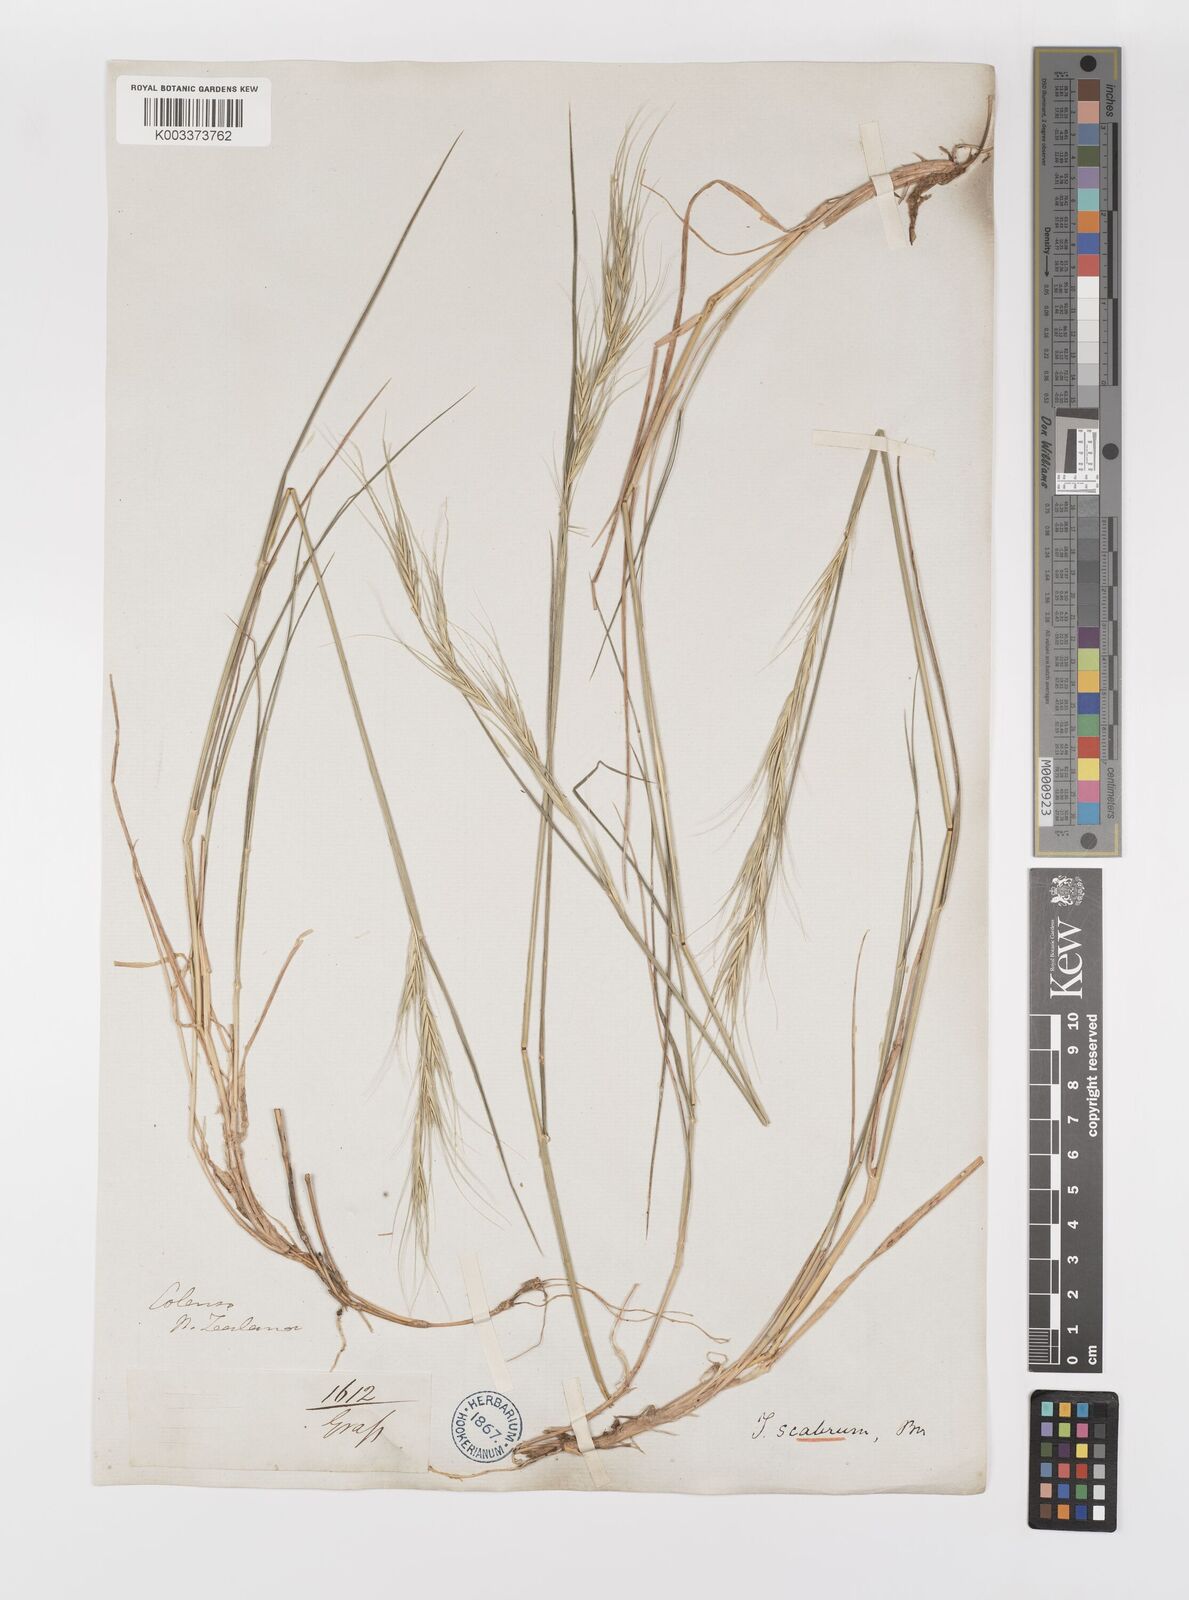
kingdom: Plantae
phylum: Tracheophyta
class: Liliopsida
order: Poales
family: Poaceae
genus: Anthosachne
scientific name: Anthosachne scabra
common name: Common wheatgrass
